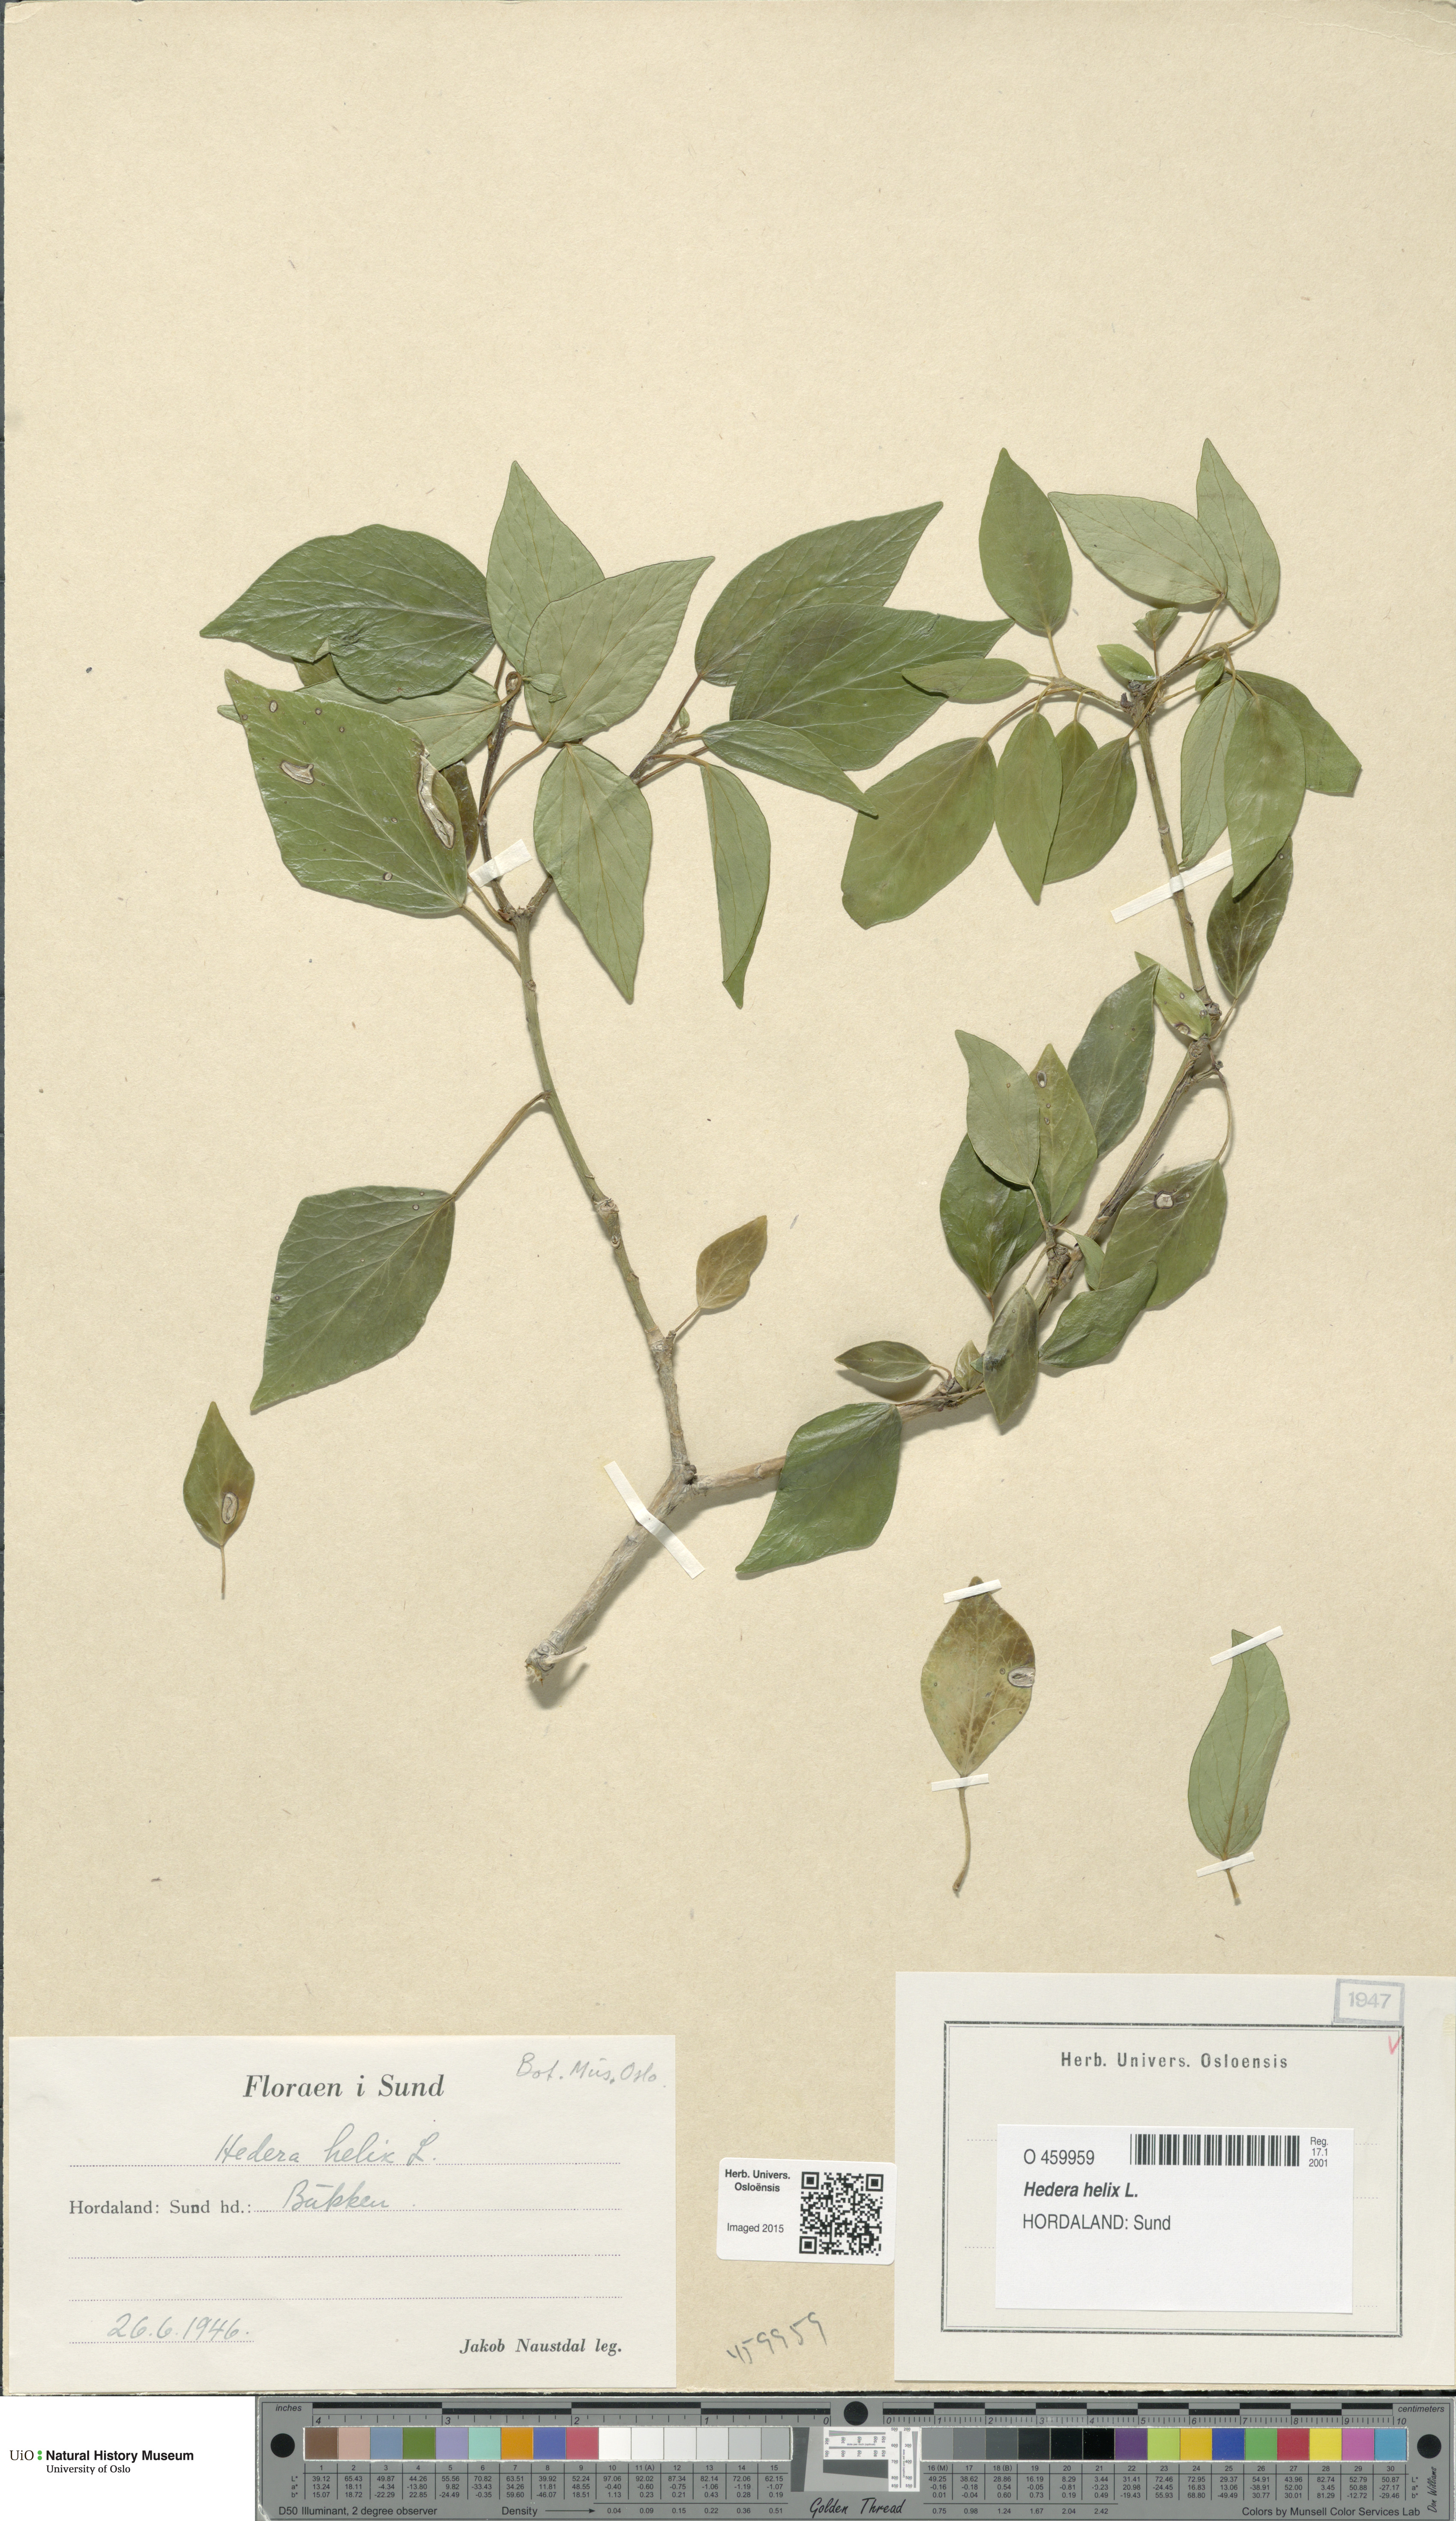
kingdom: Plantae
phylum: Tracheophyta
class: Magnoliopsida
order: Apiales
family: Araliaceae
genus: Hedera
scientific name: Hedera helix
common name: Ivy
